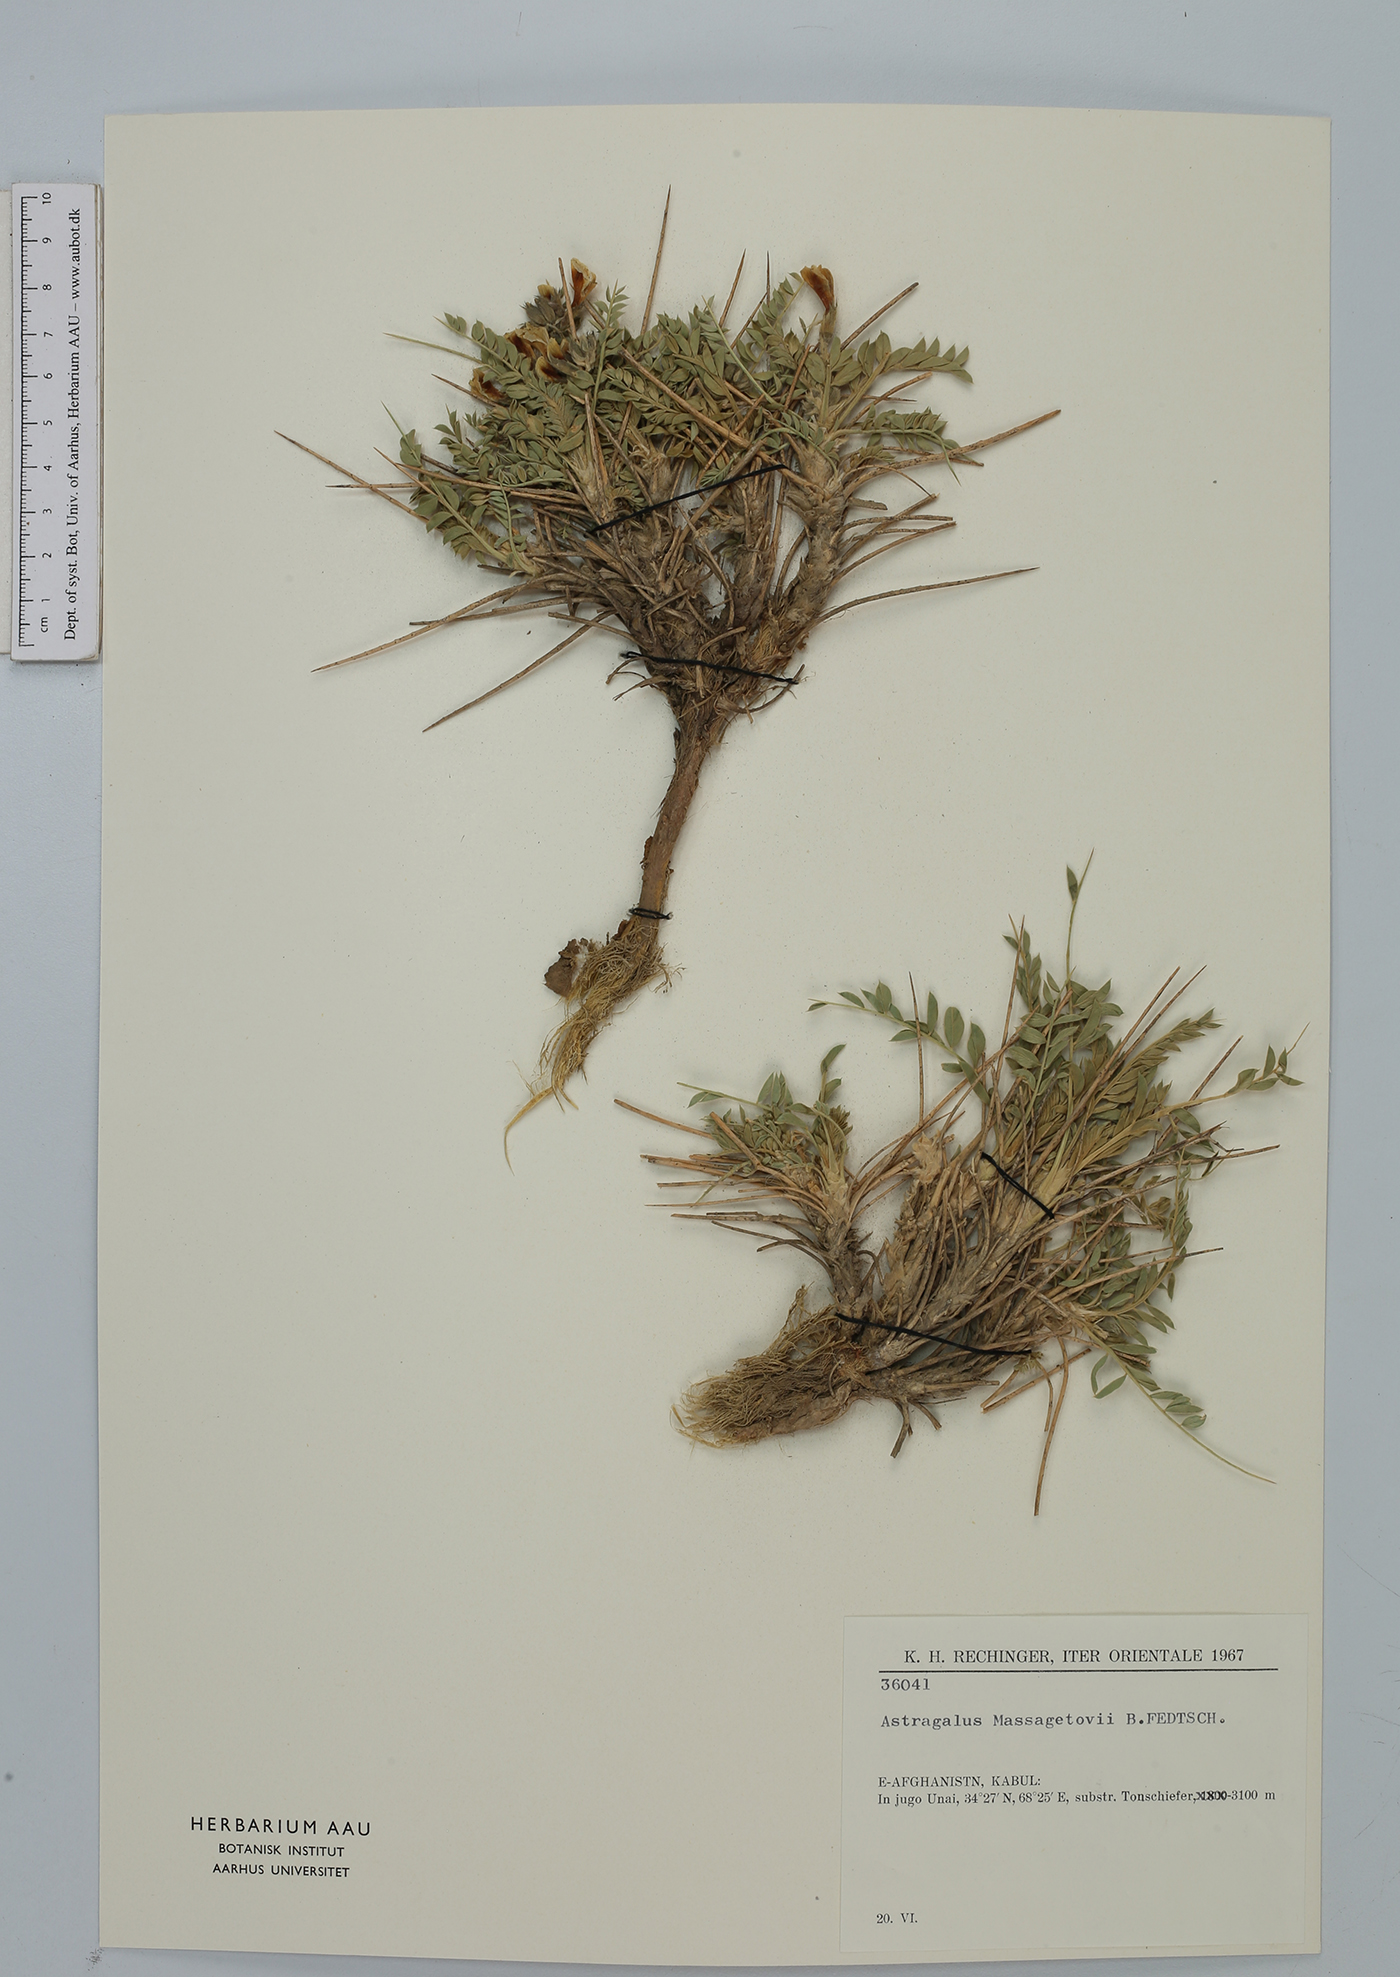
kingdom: Plantae
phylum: Tracheophyta
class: Magnoliopsida
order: Fabales
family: Fabaceae
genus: Astragalus
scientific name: Astragalus stipitatus
